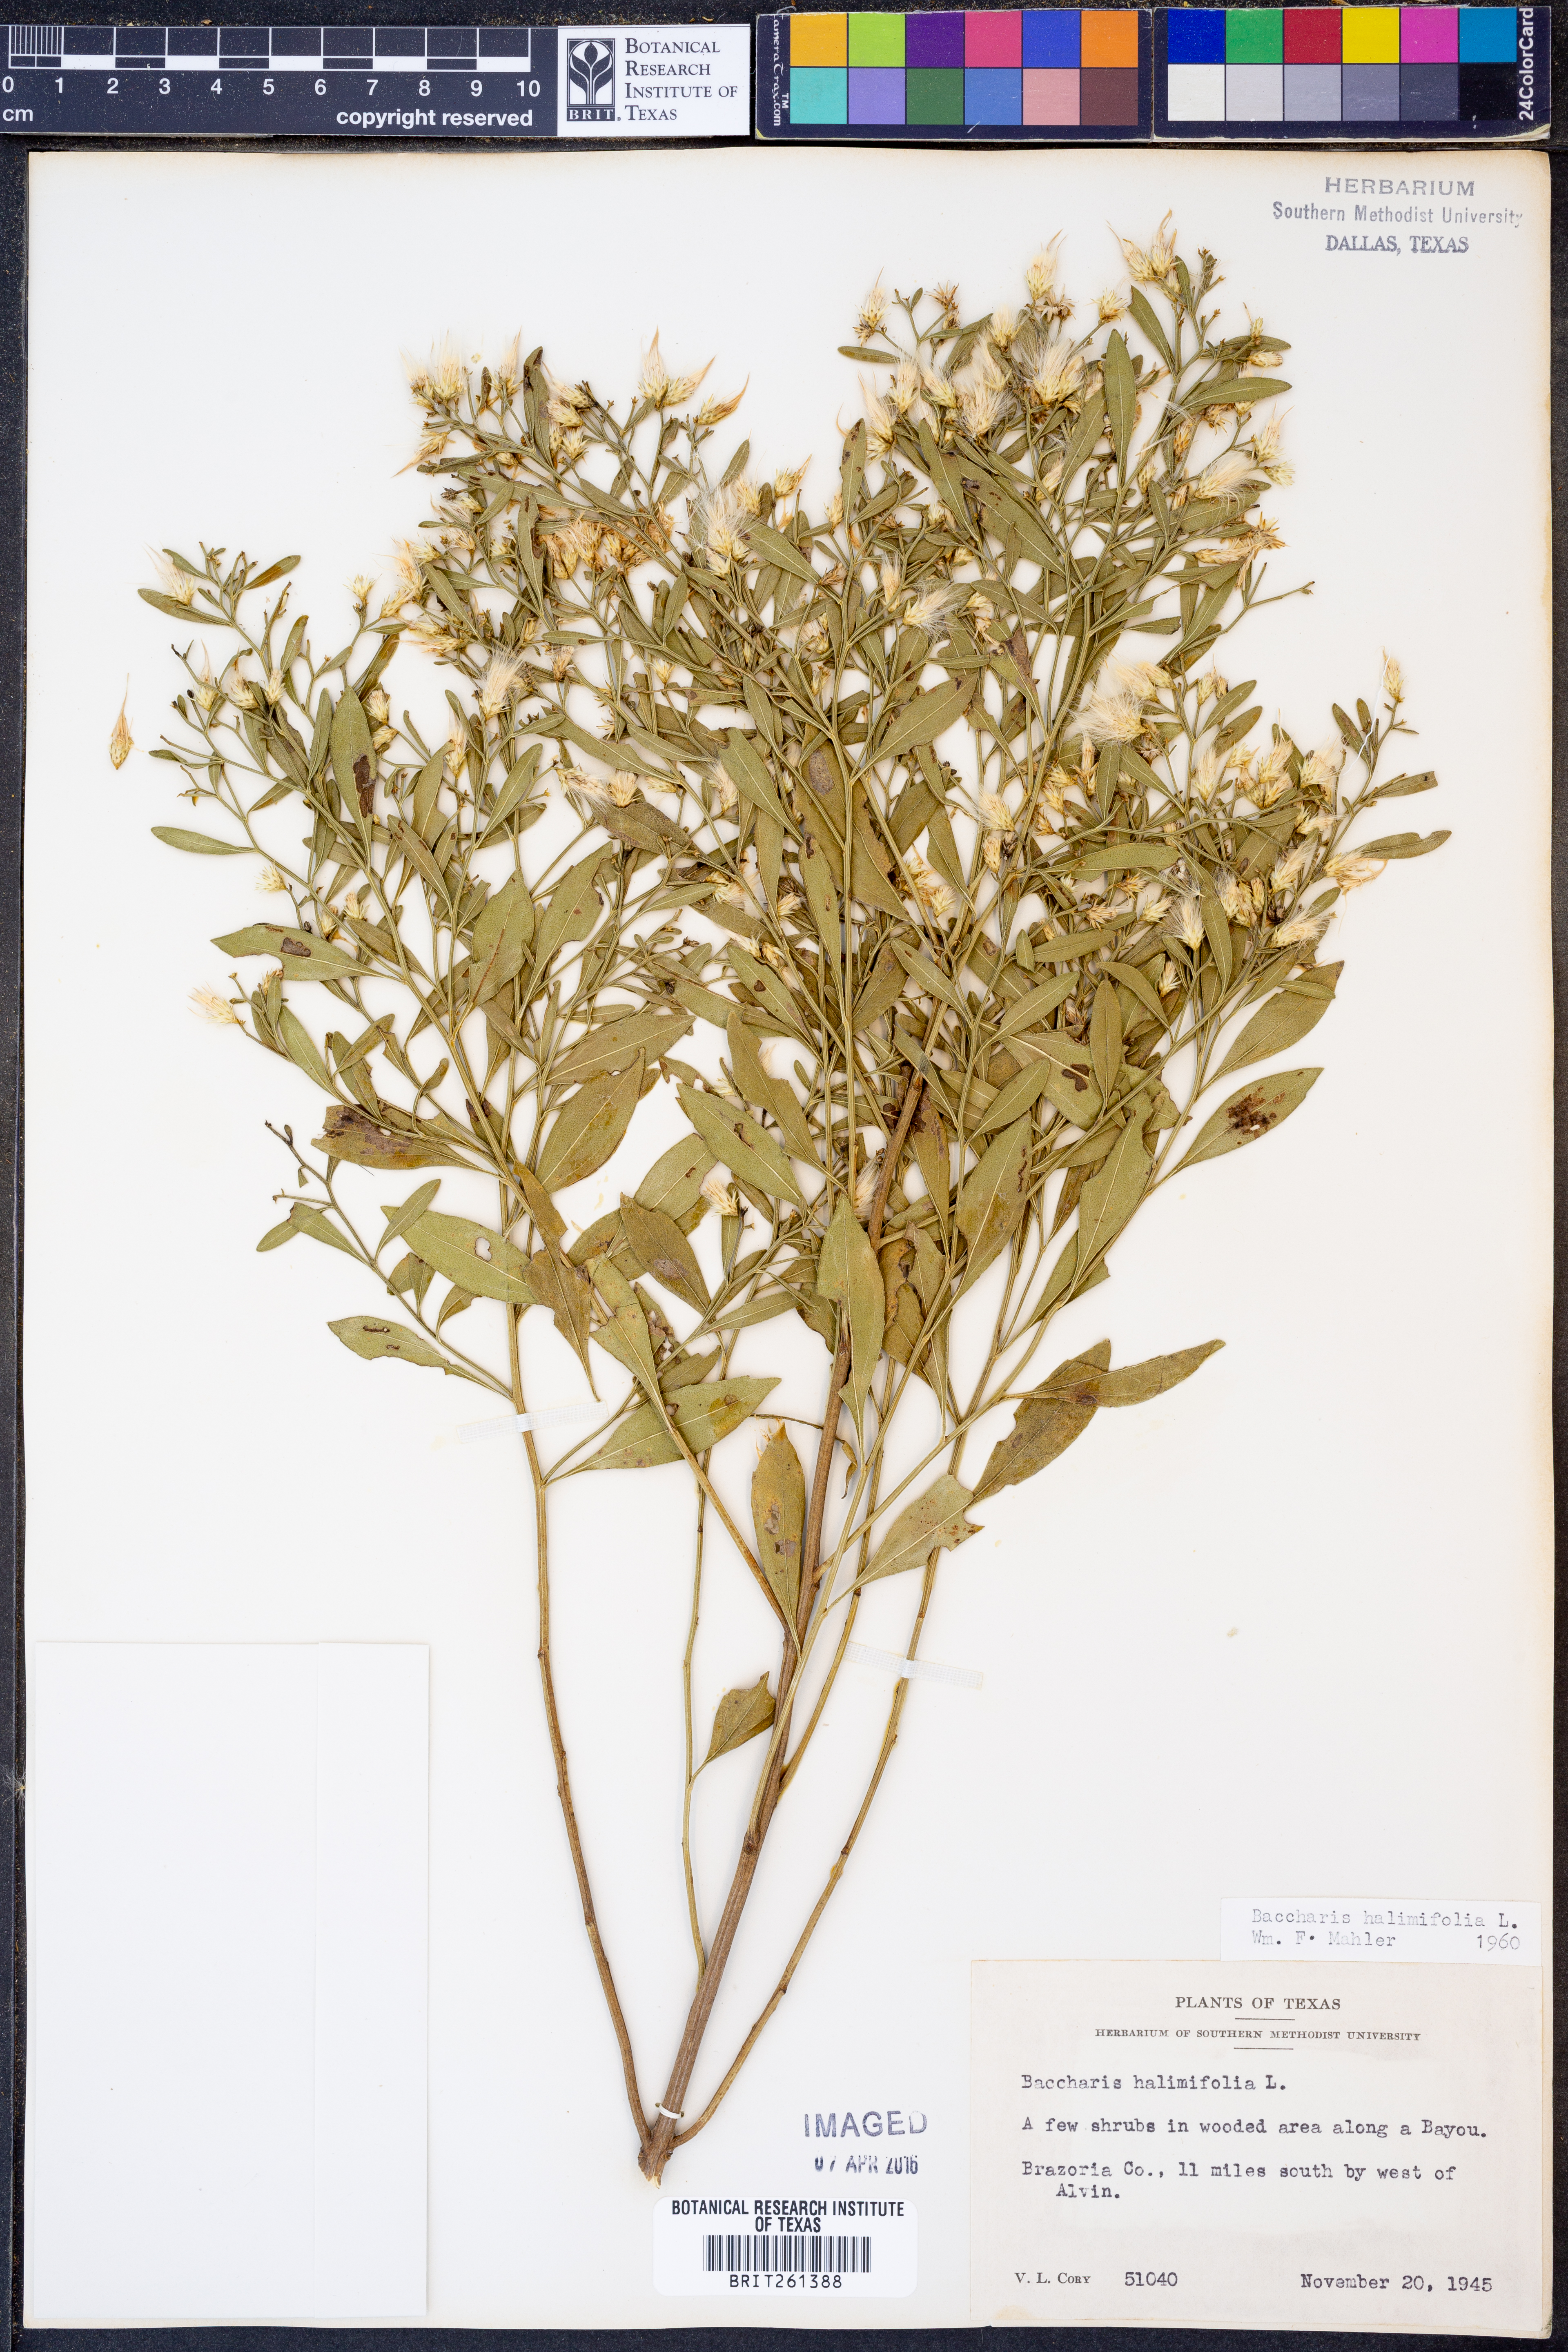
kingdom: Plantae
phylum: Tracheophyta
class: Magnoliopsida
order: Asterales
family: Asteraceae
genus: Nidorella
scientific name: Nidorella ivifolia
